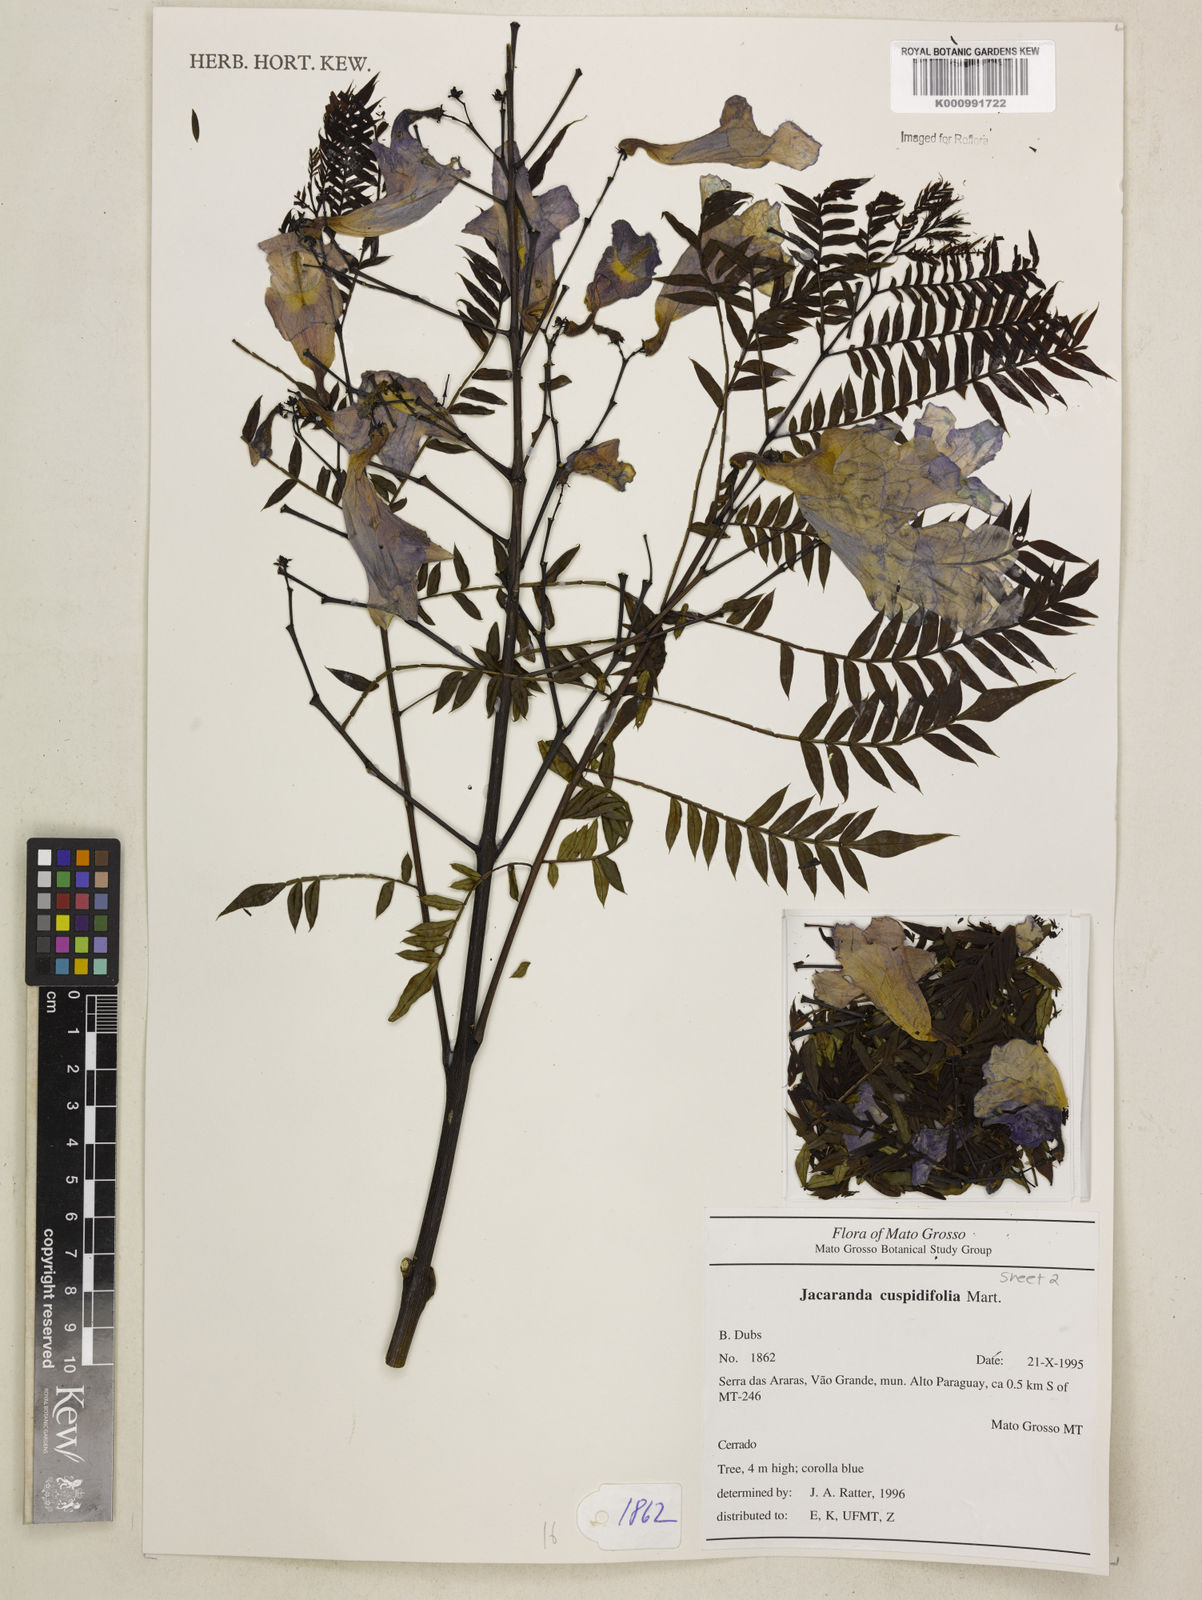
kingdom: Plantae
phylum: Tracheophyta
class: Magnoliopsida
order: Lamiales
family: Bignoniaceae
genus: Jacaranda
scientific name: Jacaranda cuspidifolia
